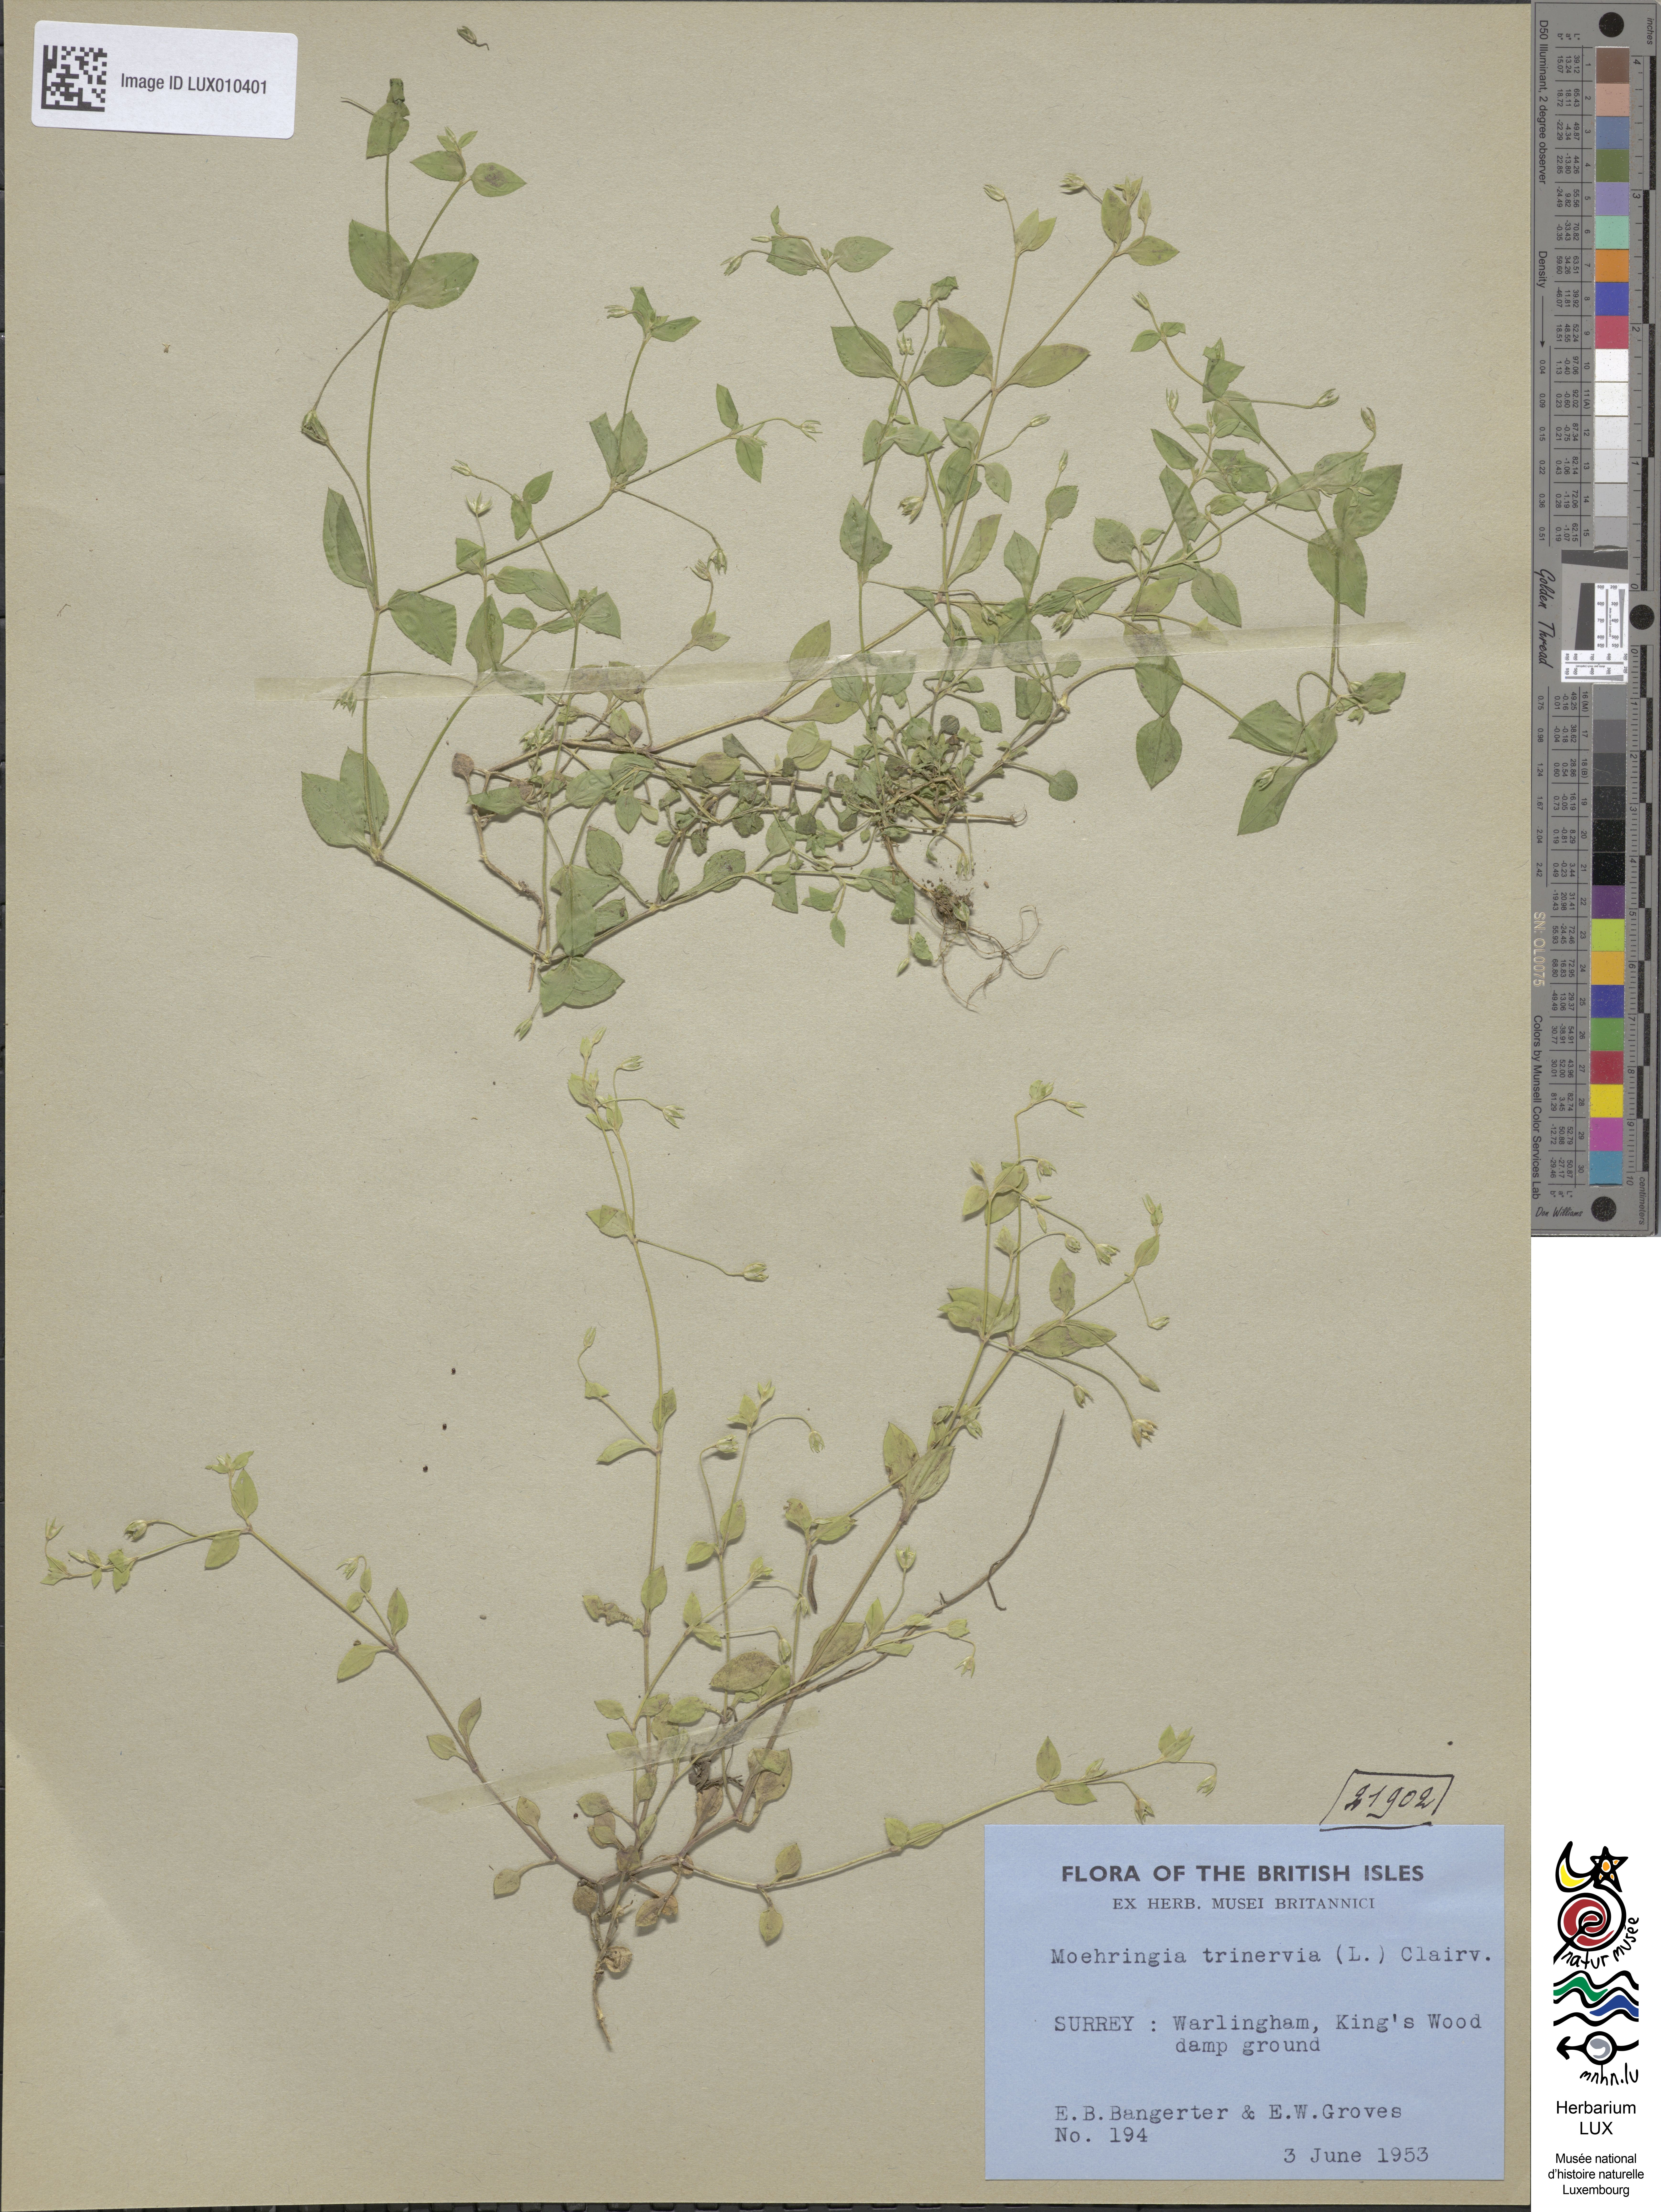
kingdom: Plantae
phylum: Tracheophyta
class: Magnoliopsida
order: Caryophyllales
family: Caryophyllaceae
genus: Moehringia
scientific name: Moehringia trinervia
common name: Three-nerved sandwort
